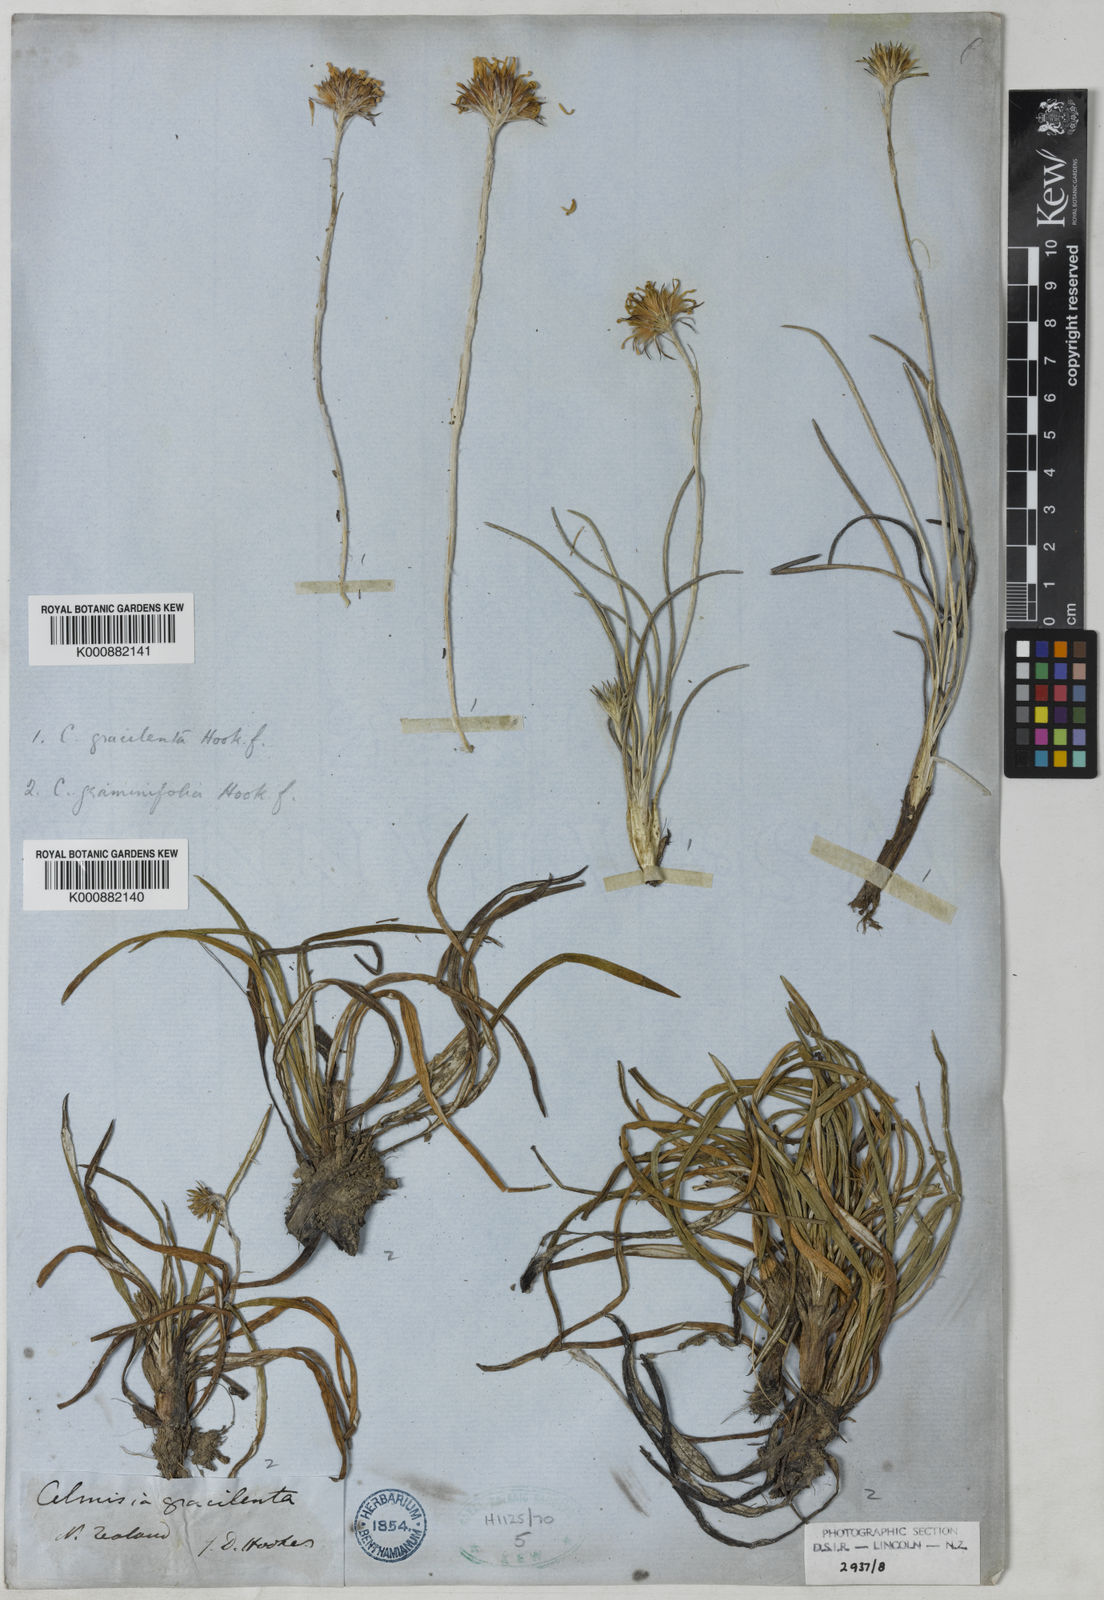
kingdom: Plantae
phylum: Tracheophyta
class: Magnoliopsida
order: Asterales
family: Asteraceae
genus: Celmisia
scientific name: Celmisia graminifolia
